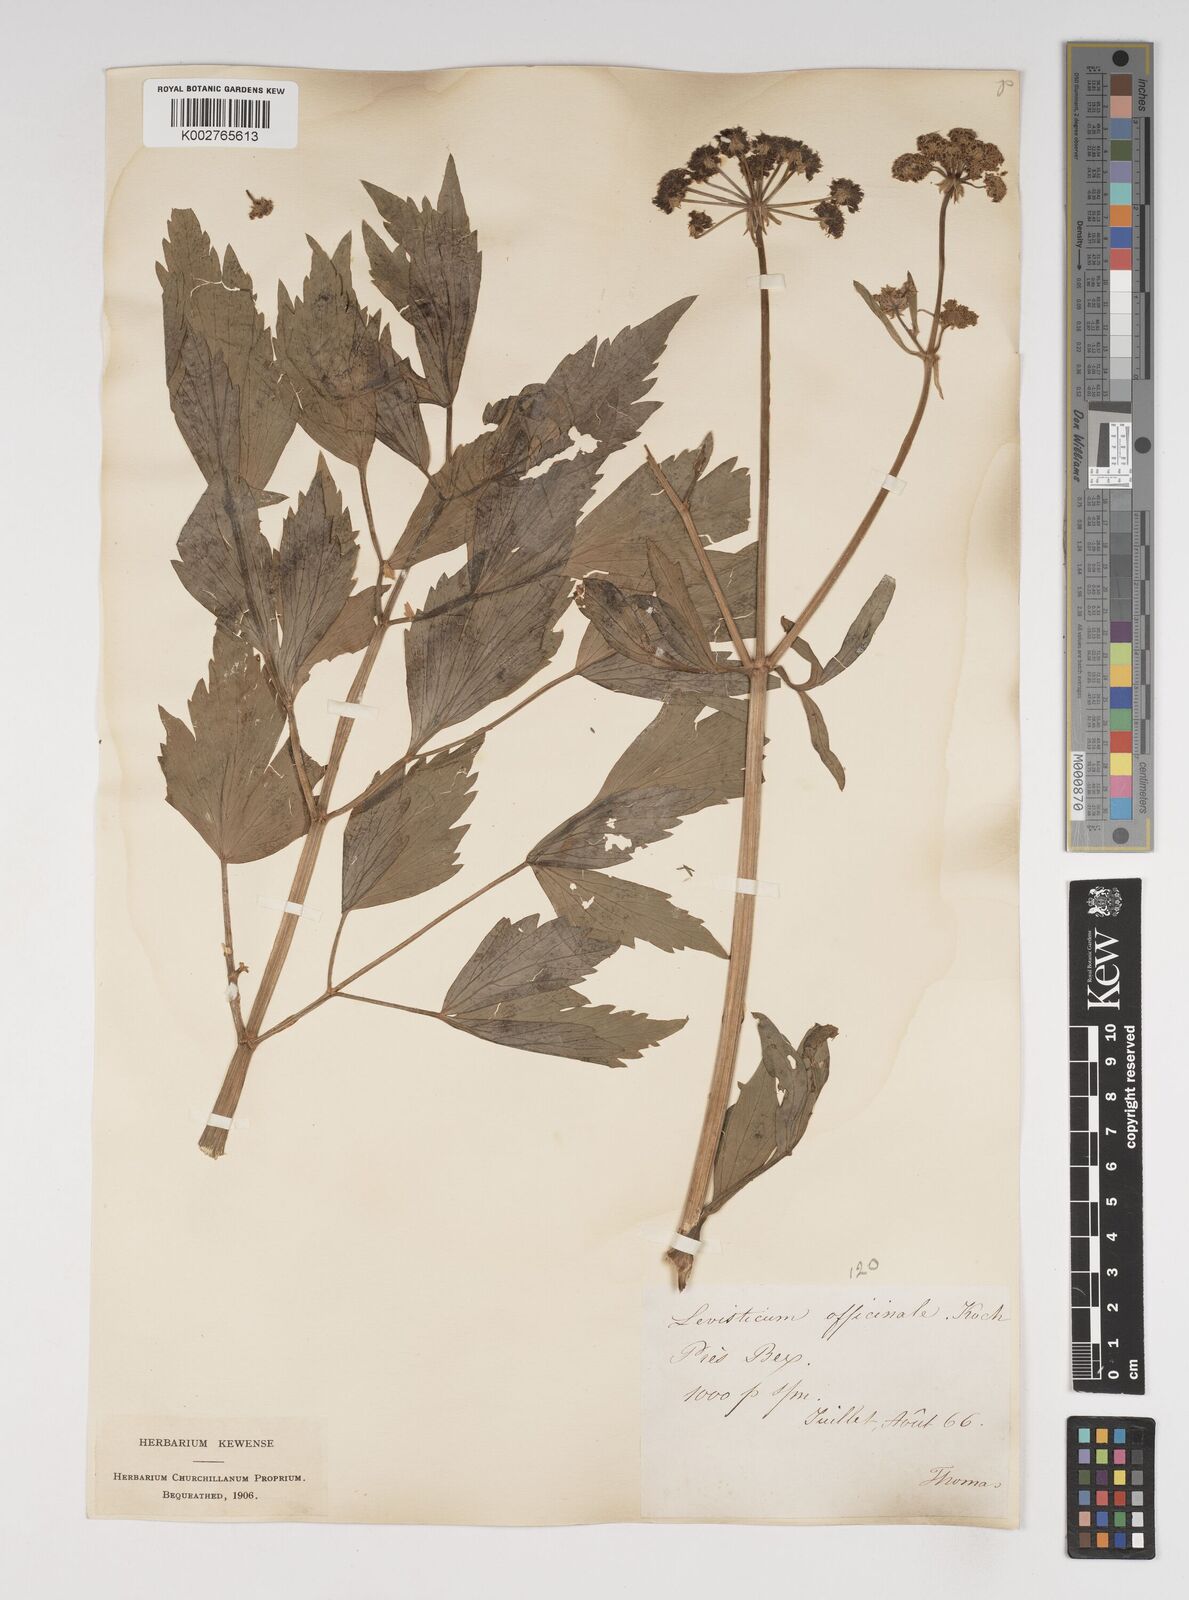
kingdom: Plantae
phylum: Tracheophyta
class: Magnoliopsida
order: Apiales
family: Apiaceae
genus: Levisticum
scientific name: Levisticum officinale
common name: Lovage
